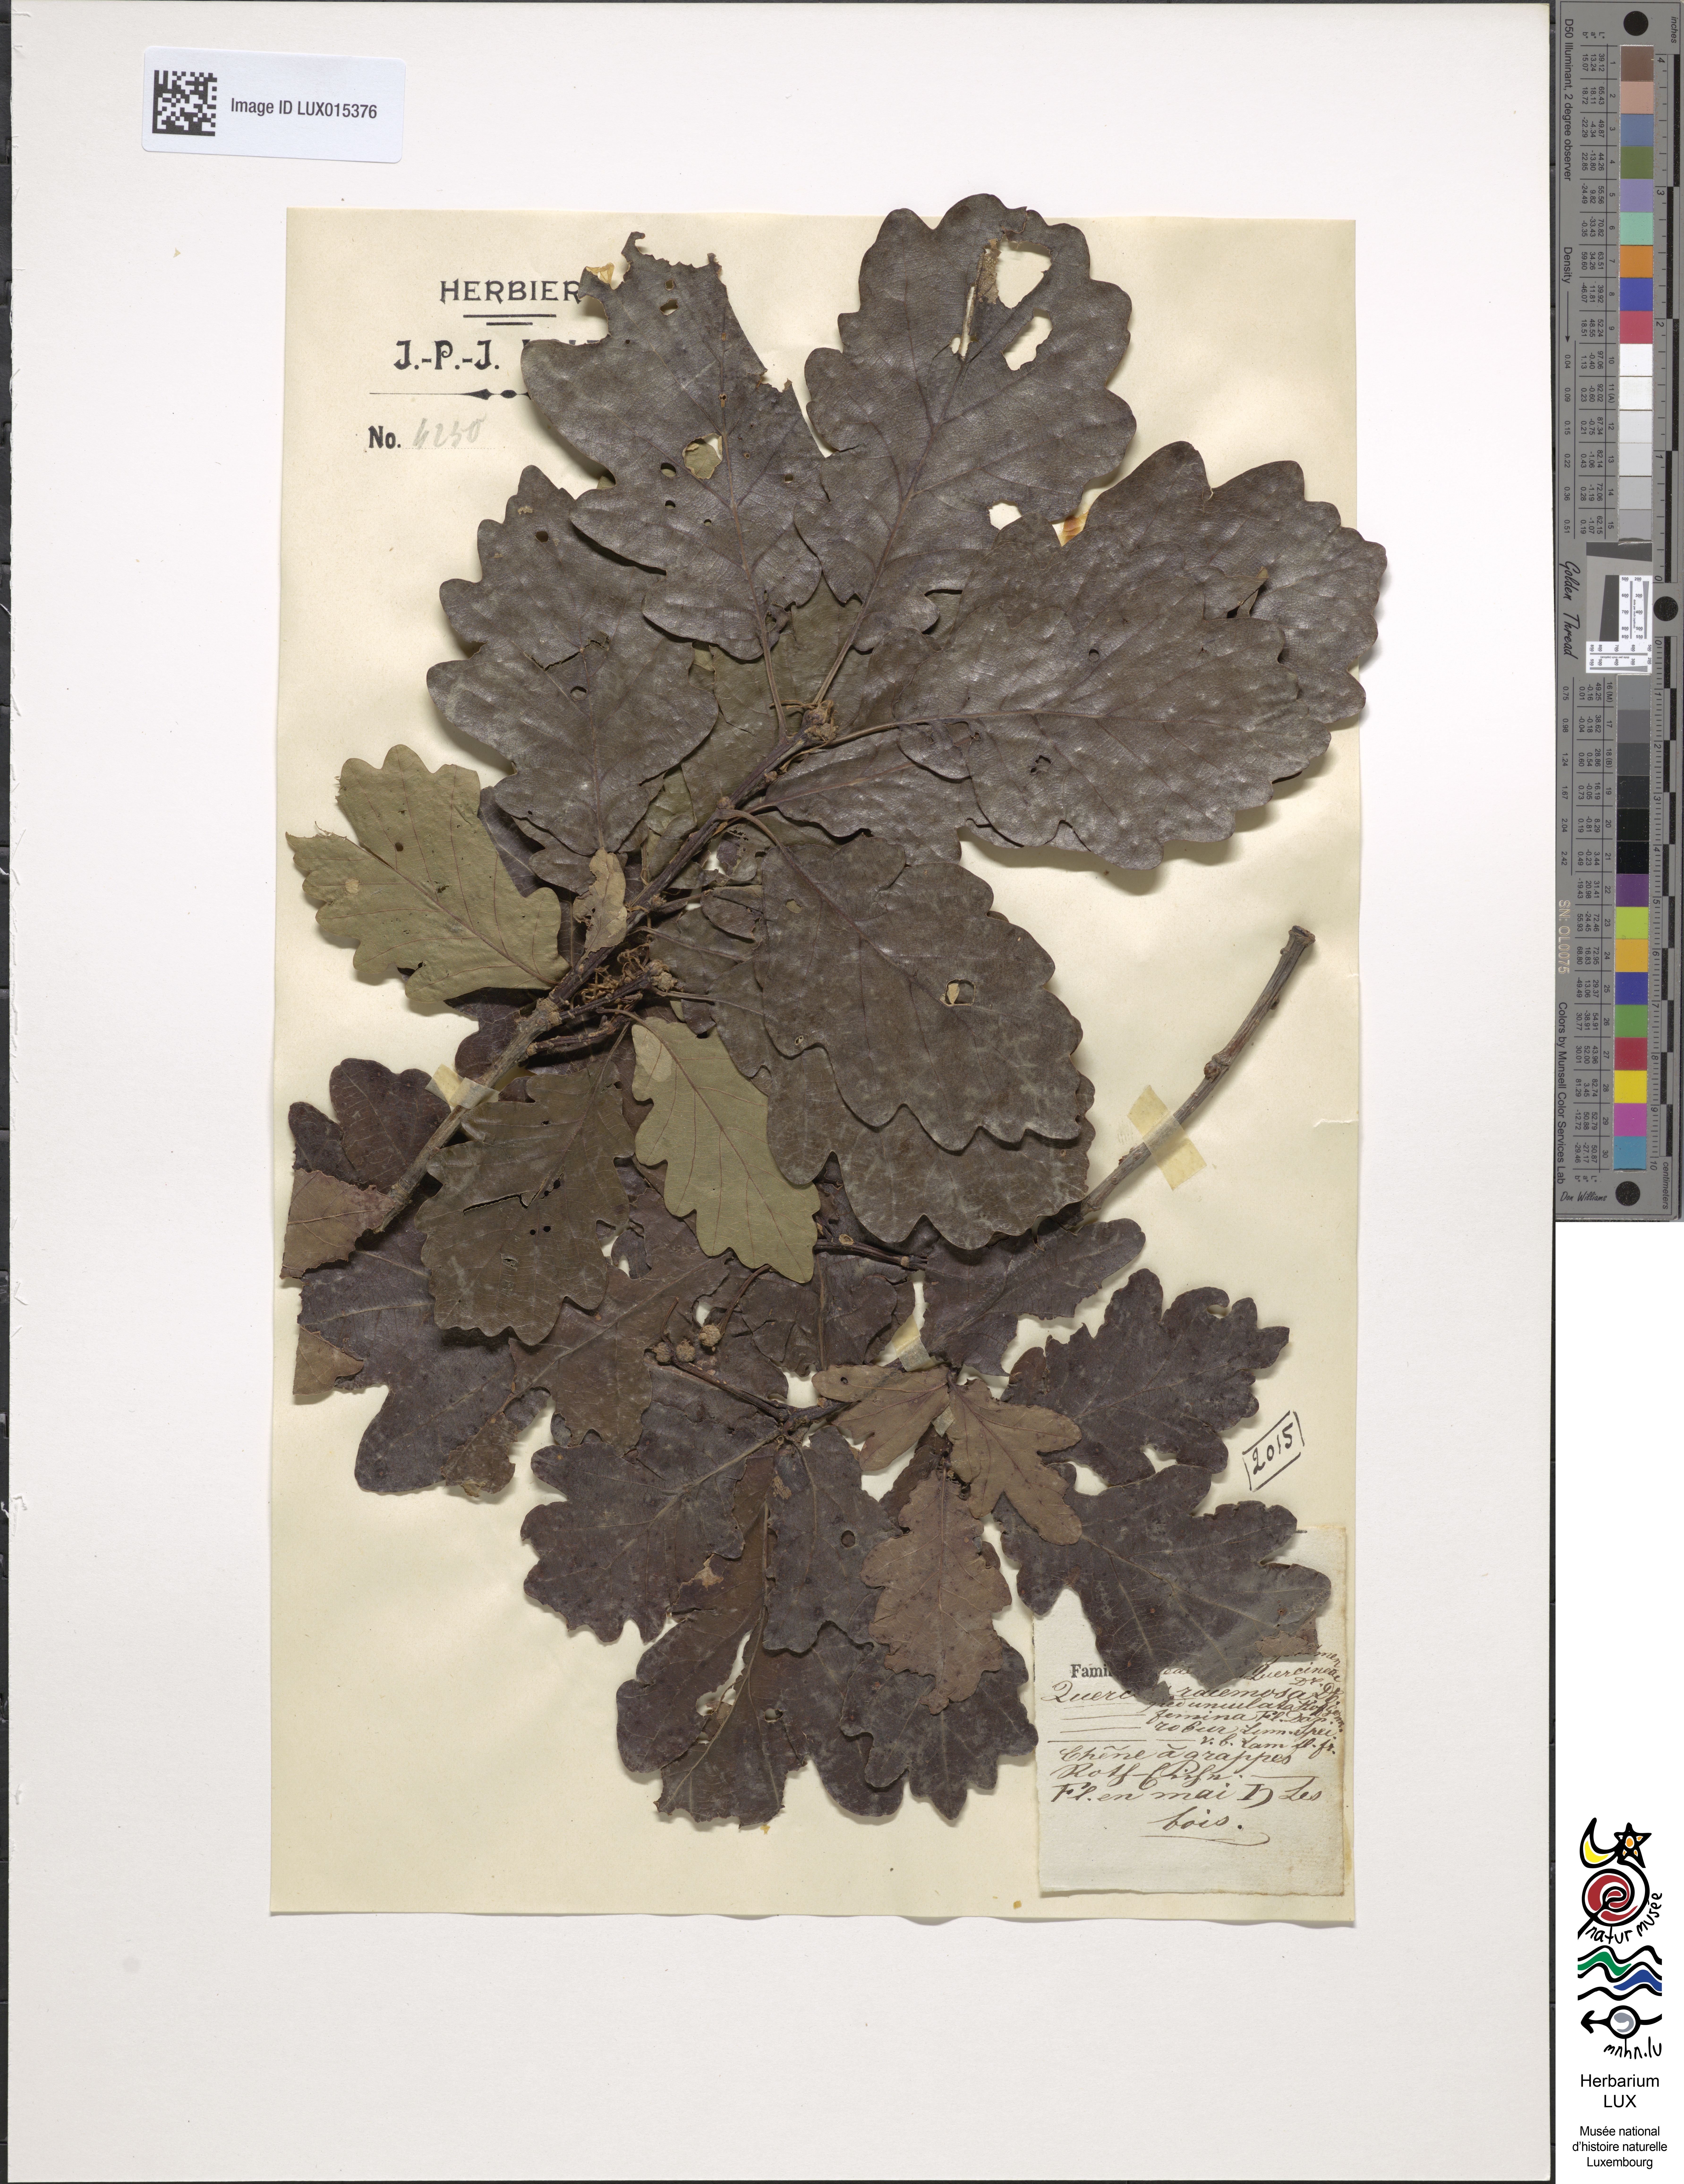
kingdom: Plantae
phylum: Tracheophyta
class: Magnoliopsida
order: Fagales
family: Fagaceae
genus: Quercus
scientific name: Quercus robur
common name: Pedunculate oak
